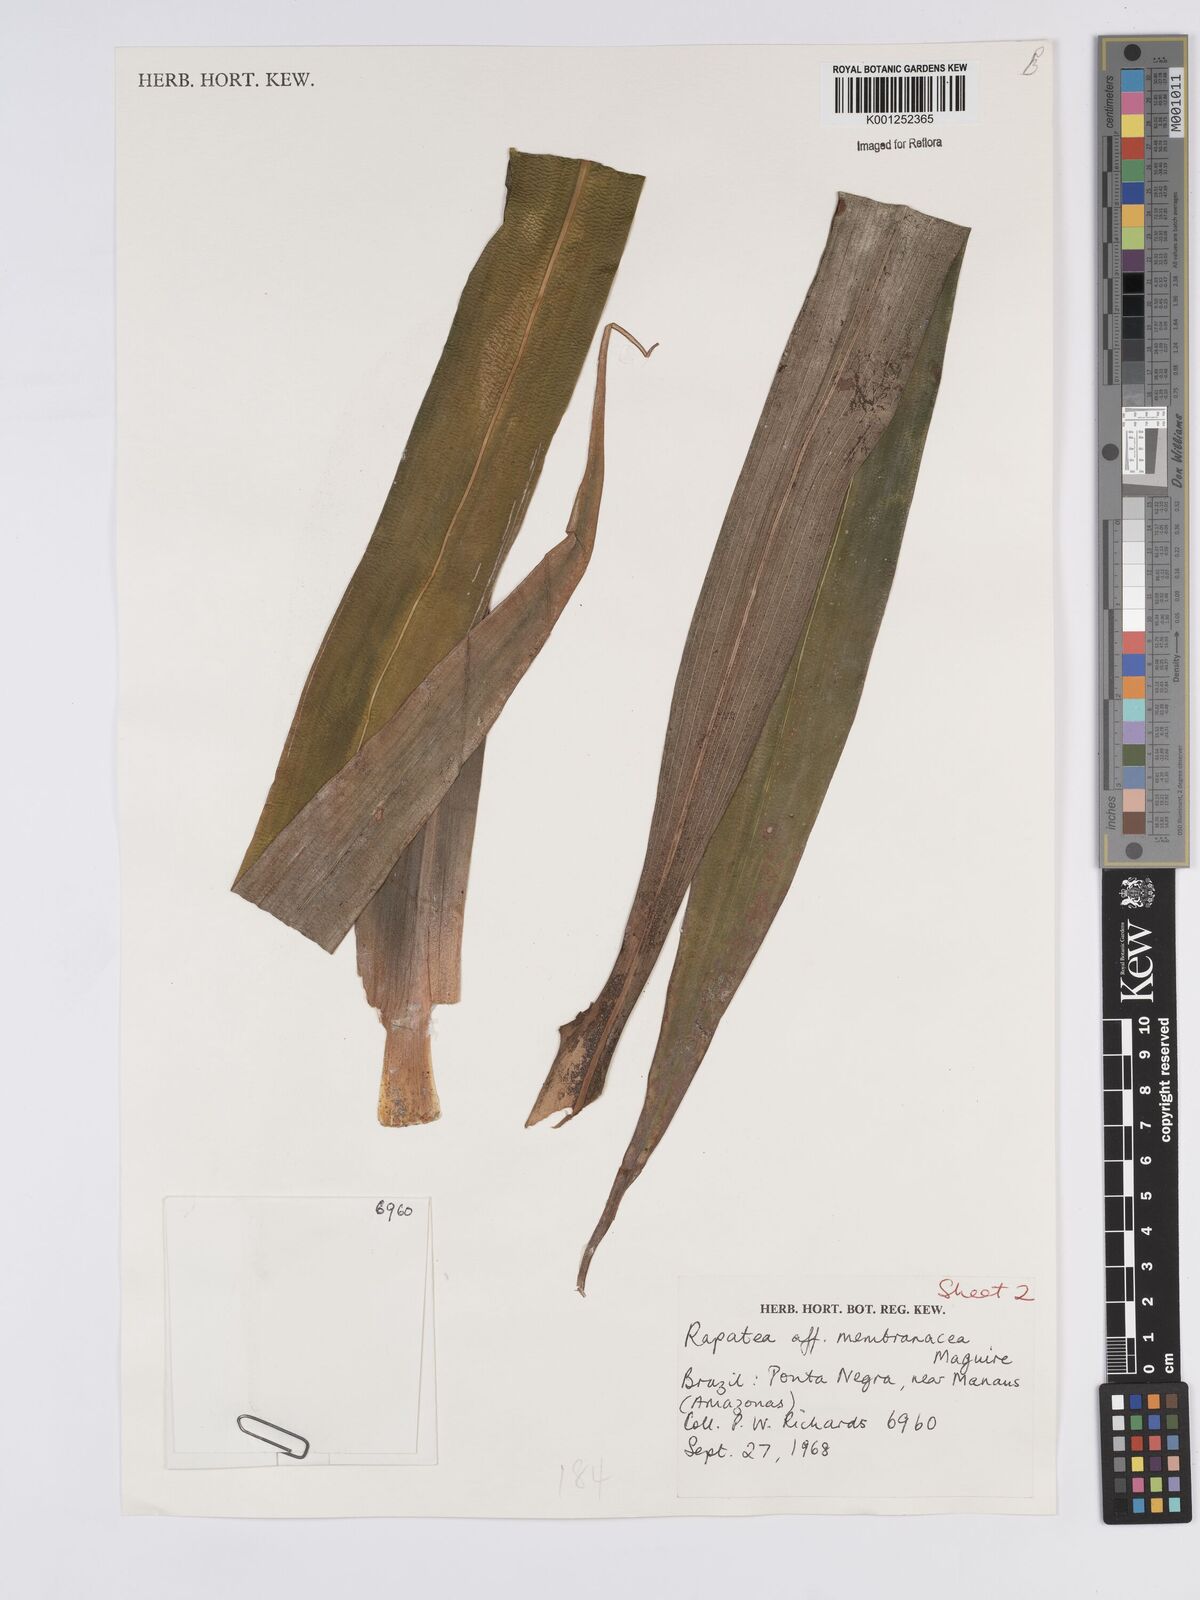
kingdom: Plantae
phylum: Tracheophyta
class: Liliopsida
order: Poales
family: Rapateaceae
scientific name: Rapateaceae
